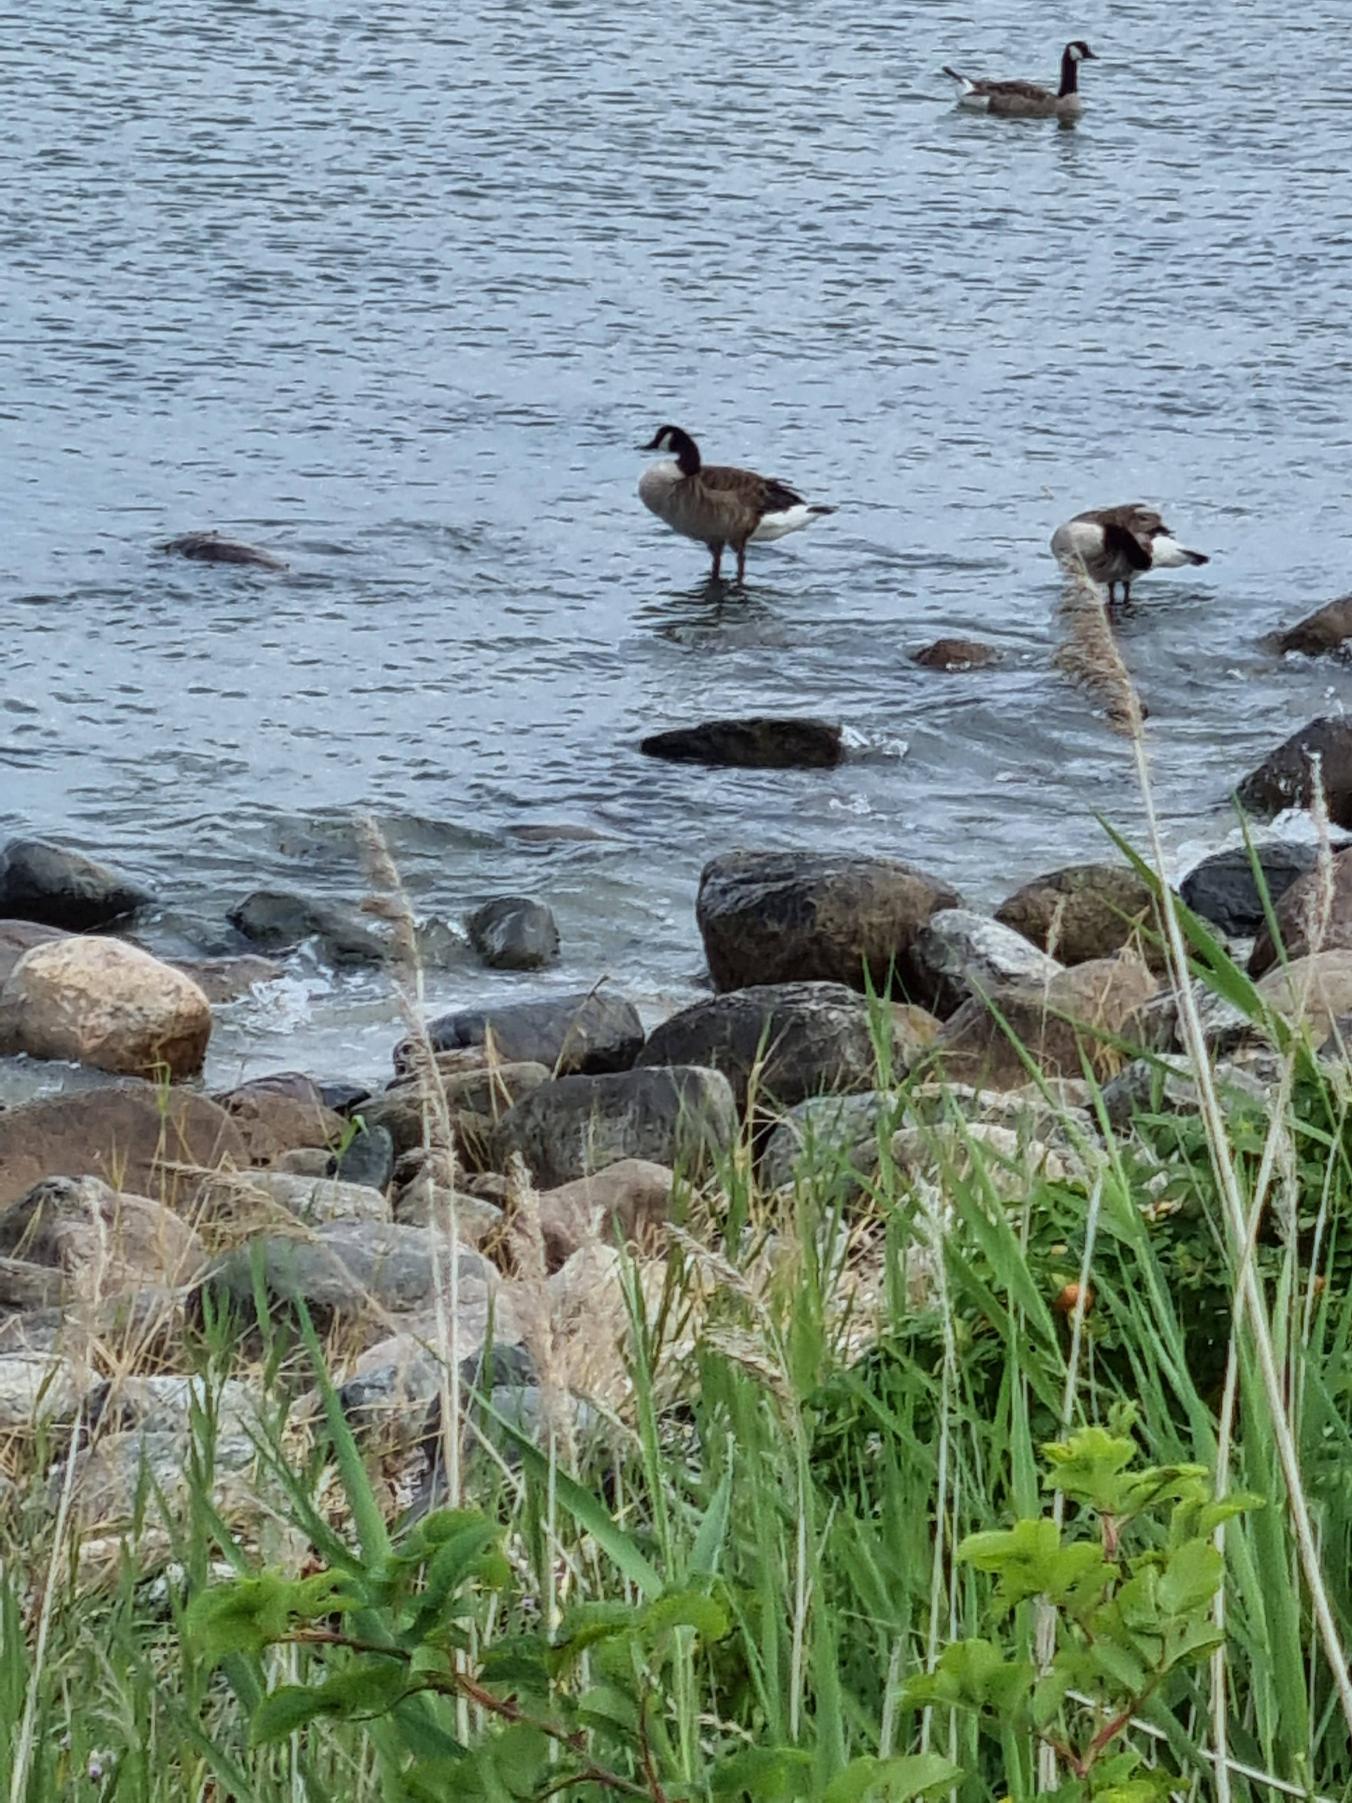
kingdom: Animalia
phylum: Chordata
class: Aves
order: Anseriformes
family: Anatidae
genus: Branta
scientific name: Branta canadensis
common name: Canadagås
